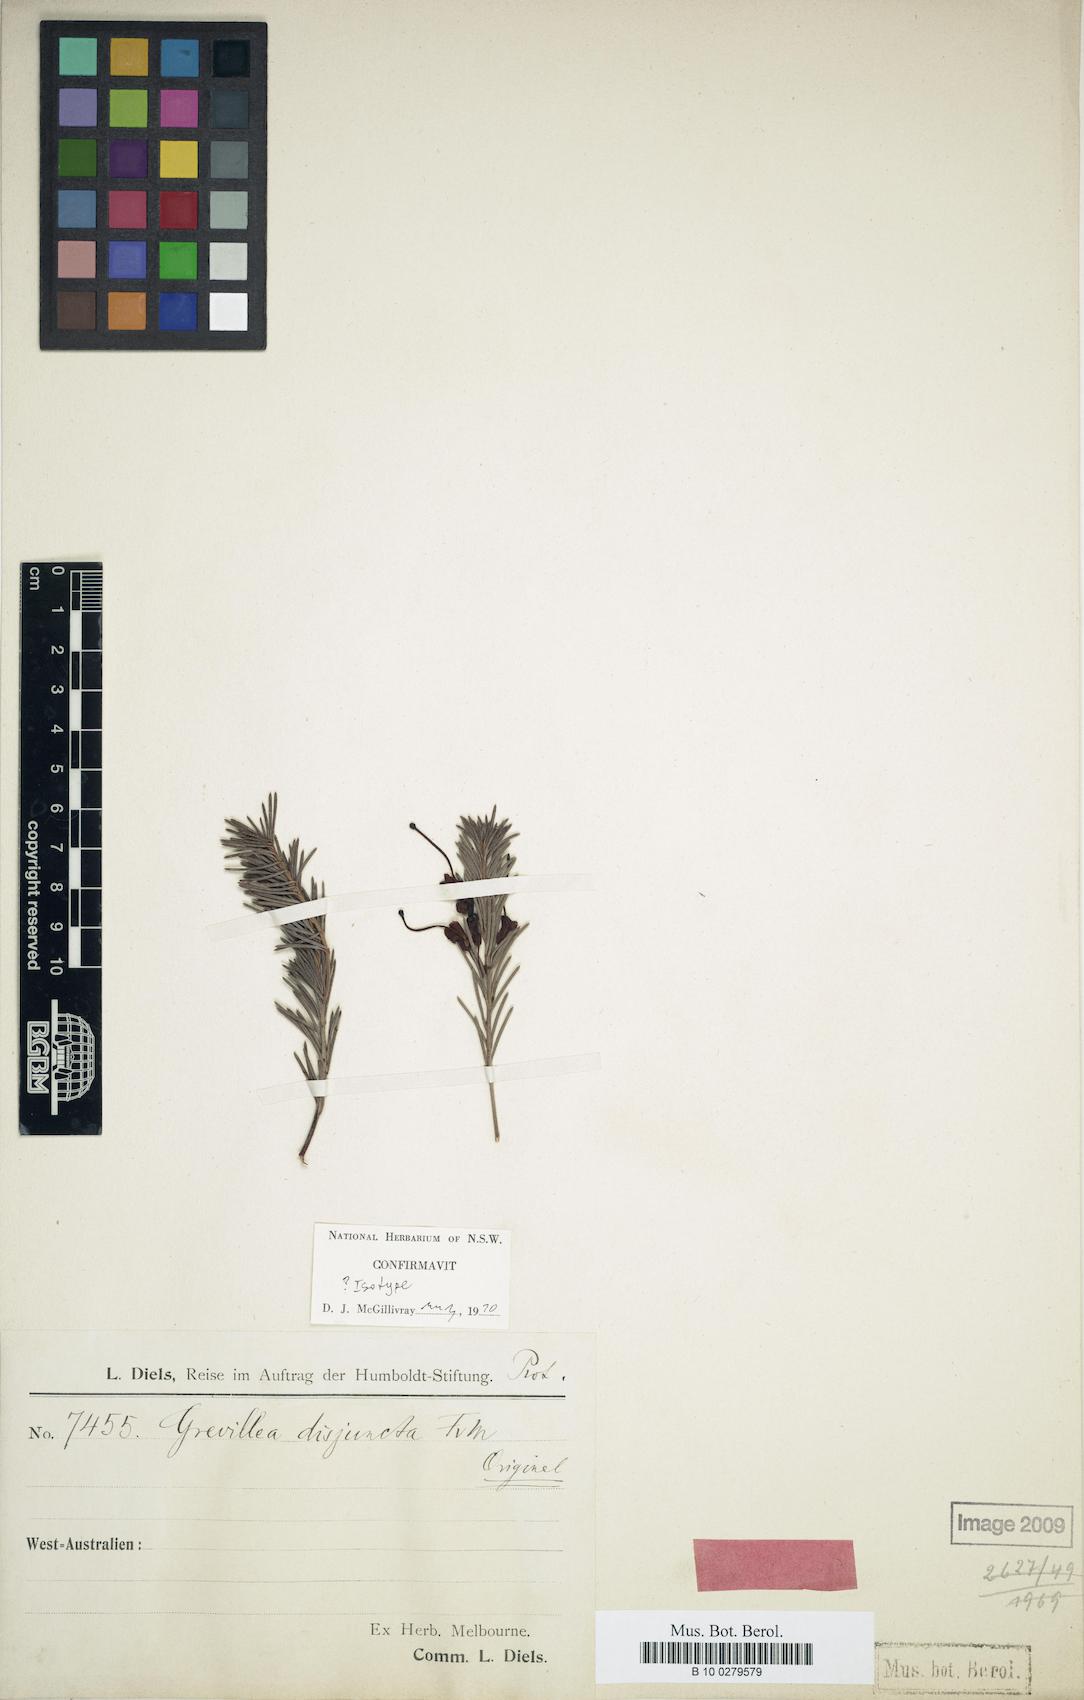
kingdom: Plantae
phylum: Tracheophyta
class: Magnoliopsida
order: Proteales
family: Proteaceae
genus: Grevillea
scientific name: Grevillea disjuncta
